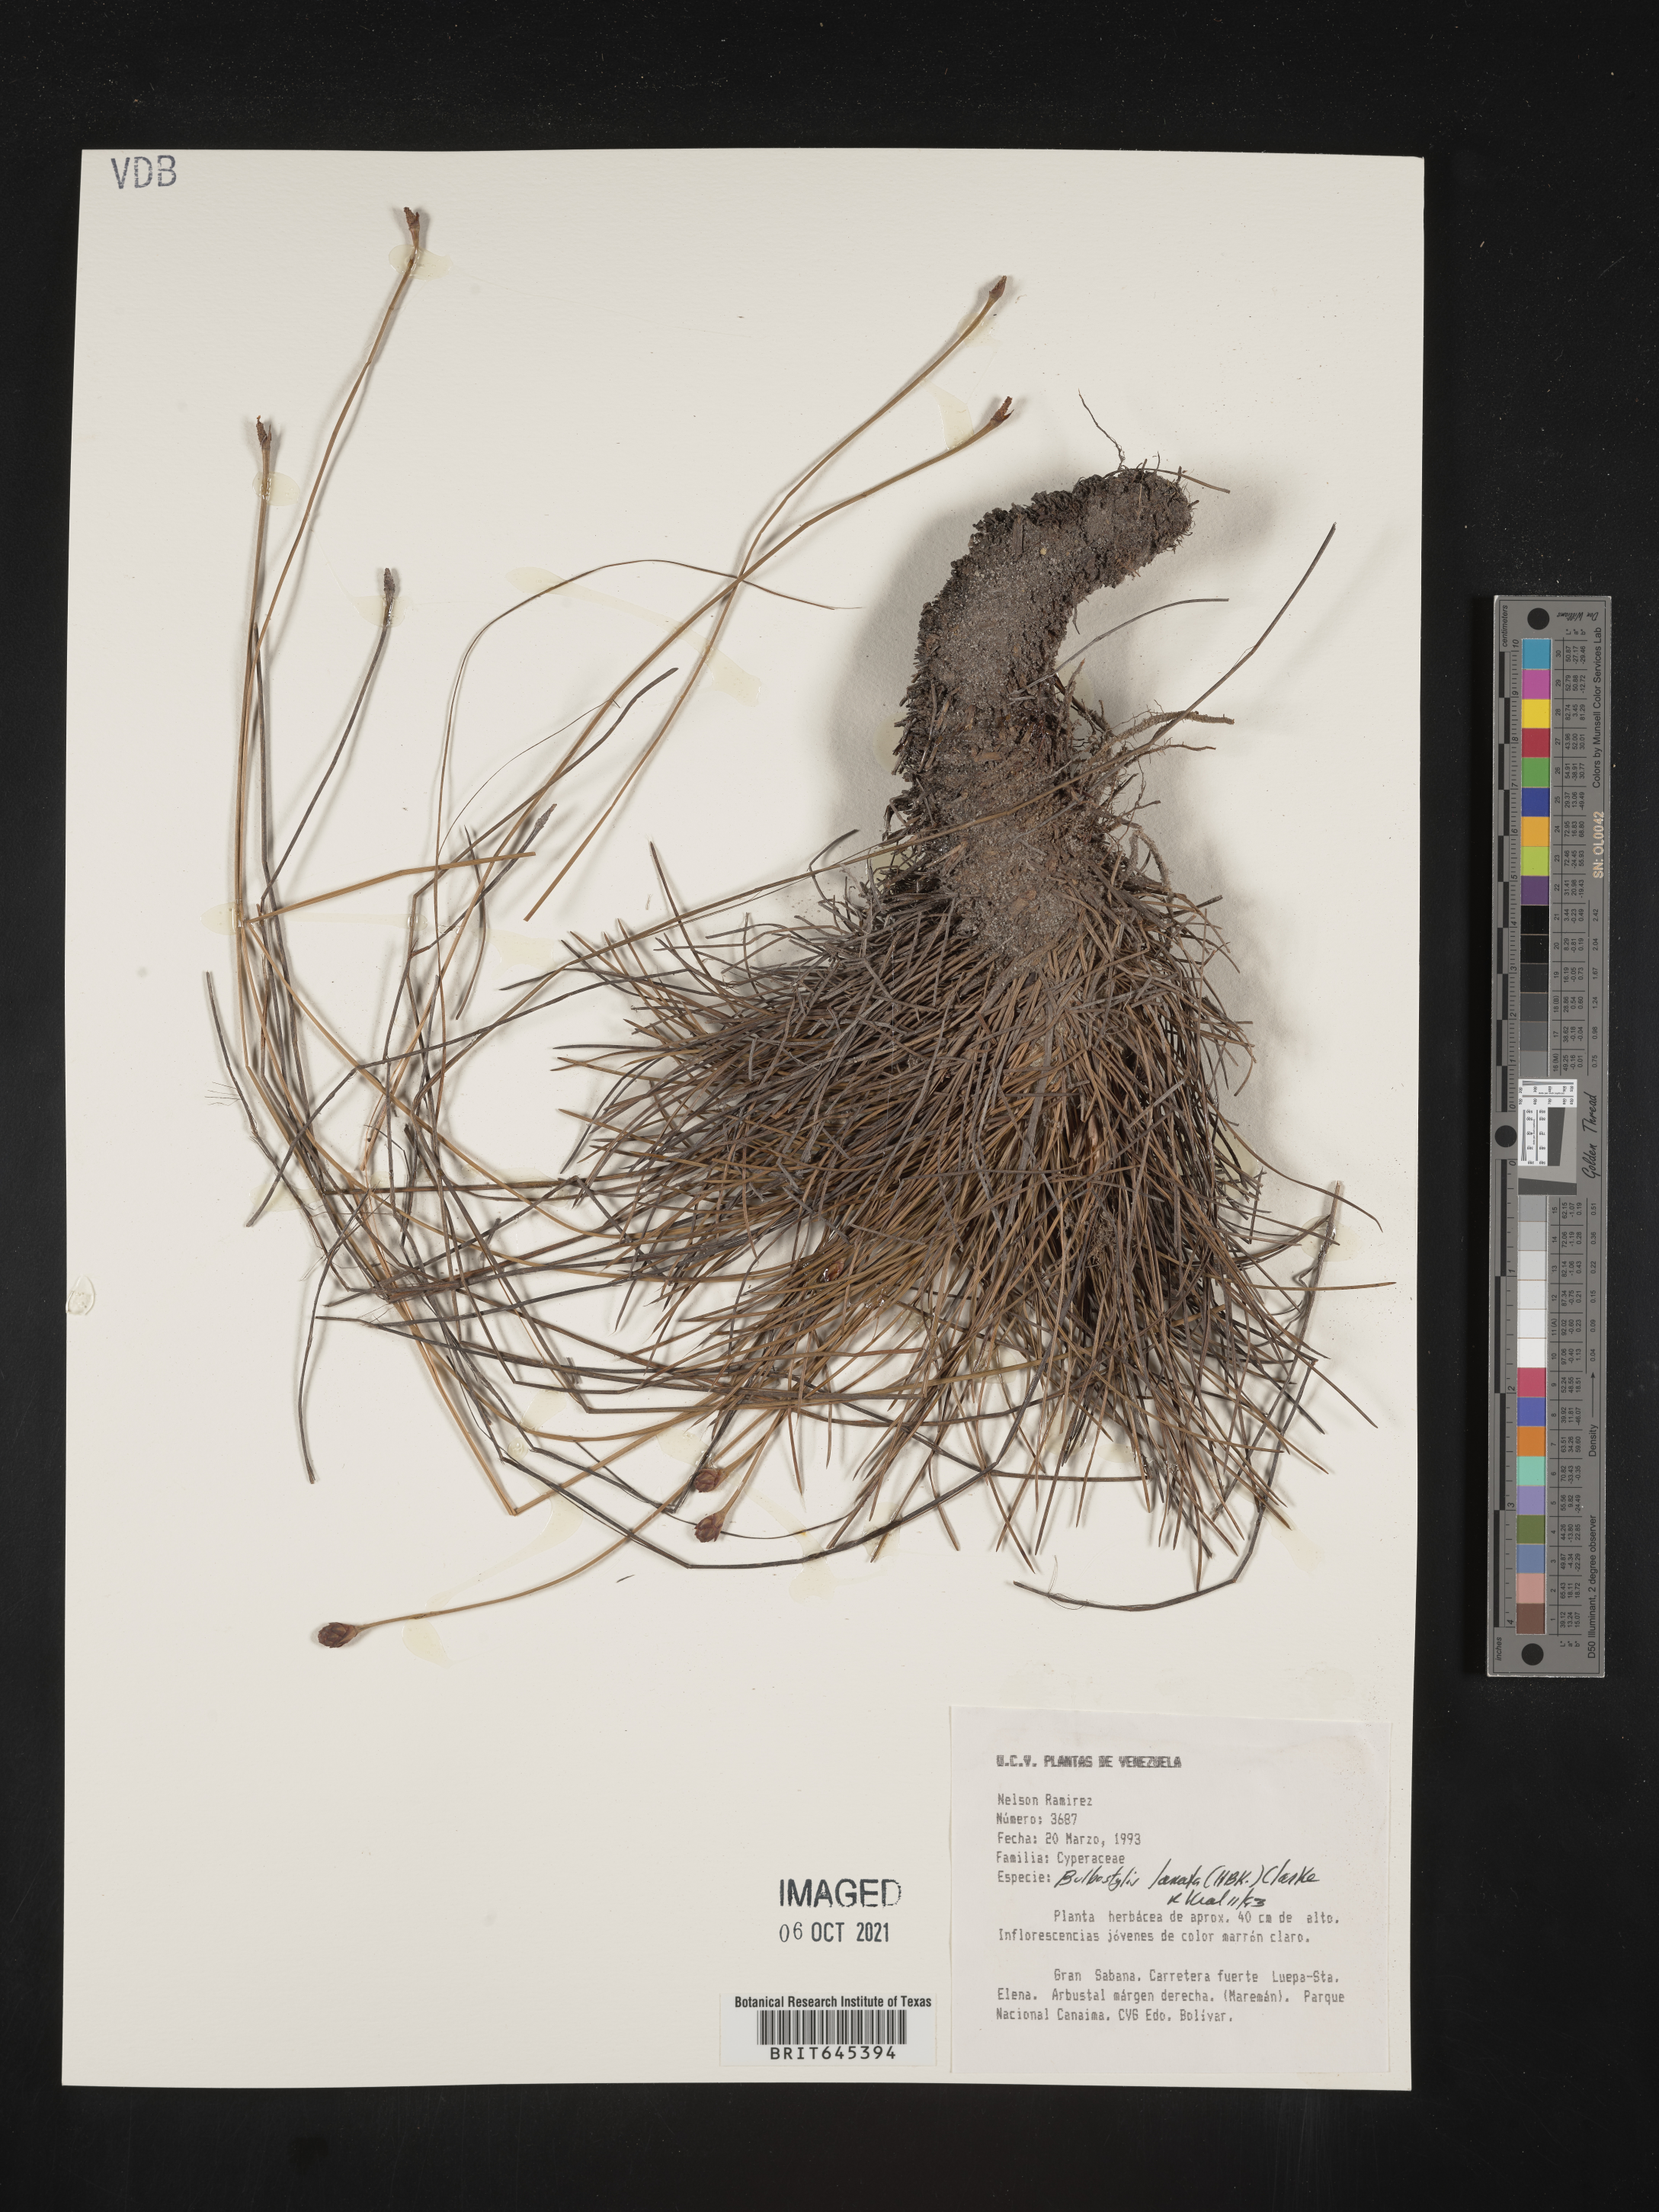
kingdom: Plantae
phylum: Tracheophyta
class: Liliopsida
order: Poales
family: Cyperaceae
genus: Bulbostylis
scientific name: Bulbostylis lanata
